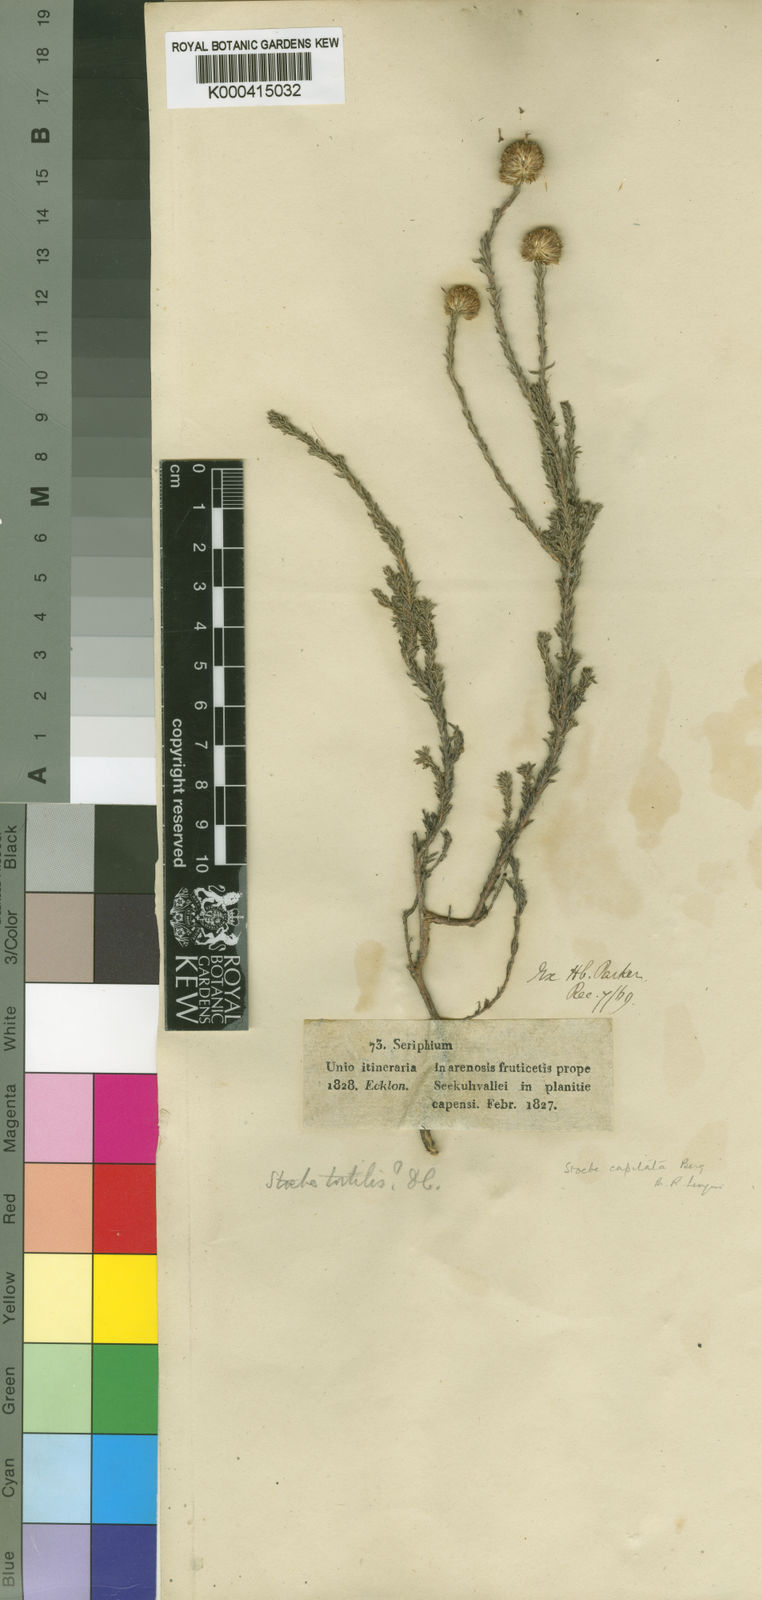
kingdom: Plantae
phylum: Tracheophyta
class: Magnoliopsida
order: Asterales
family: Asteraceae
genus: Stoebe
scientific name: Stoebe capitata
